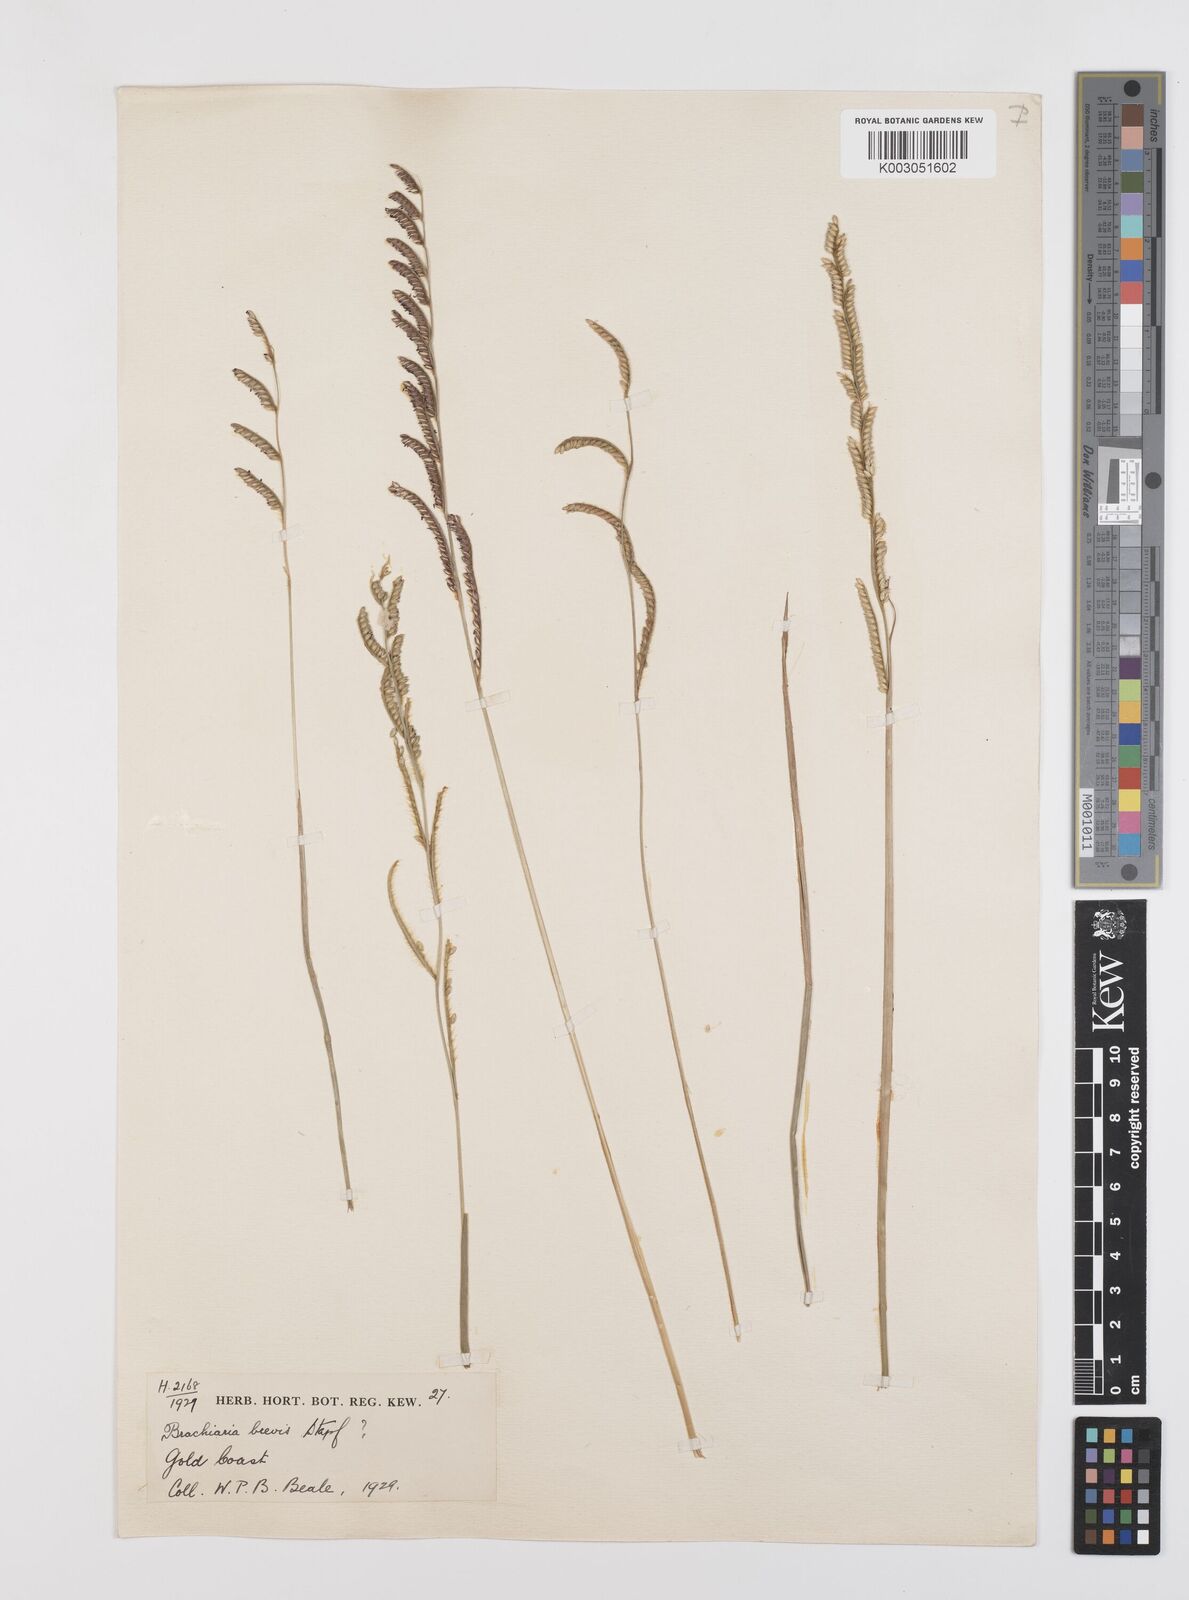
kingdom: Plantae
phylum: Tracheophyta
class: Liliopsida
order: Poales
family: Poaceae
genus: Urochloa
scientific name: Urochloa jubata
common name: Buffalograss
